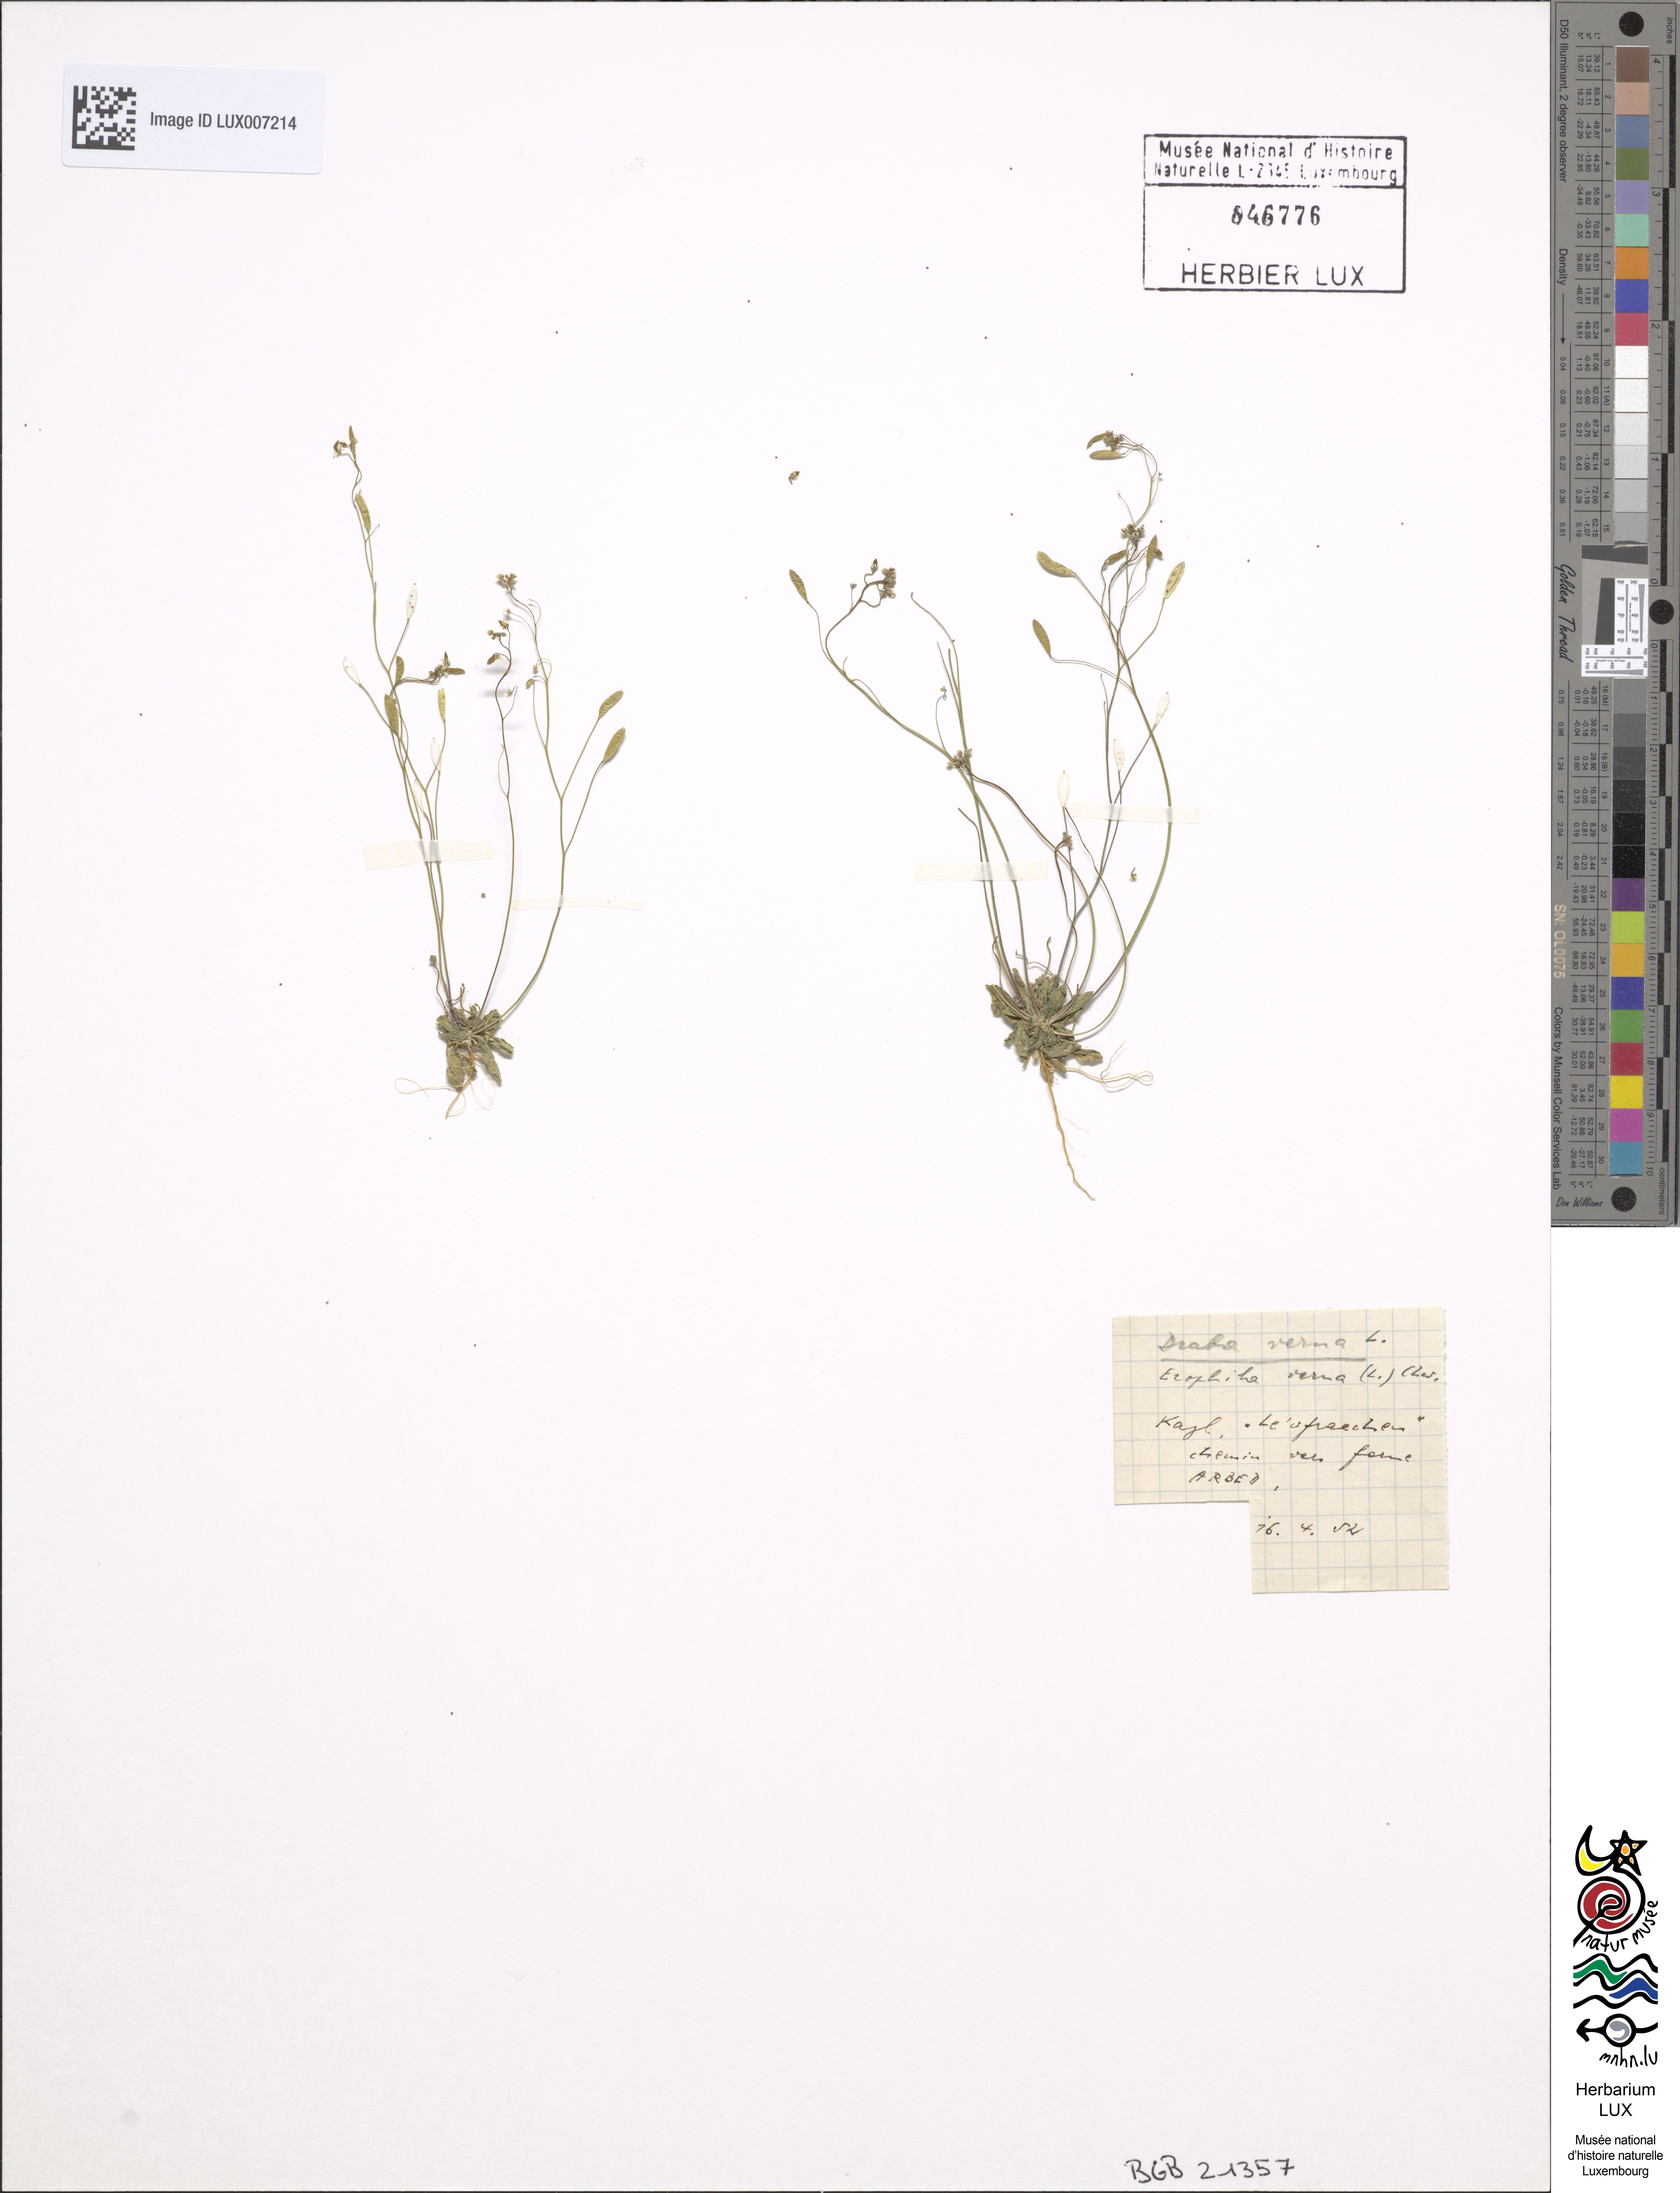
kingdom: Plantae
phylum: Tracheophyta
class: Magnoliopsida
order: Brassicales
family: Brassicaceae
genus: Draba
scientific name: Draba verna
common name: Spring draba
